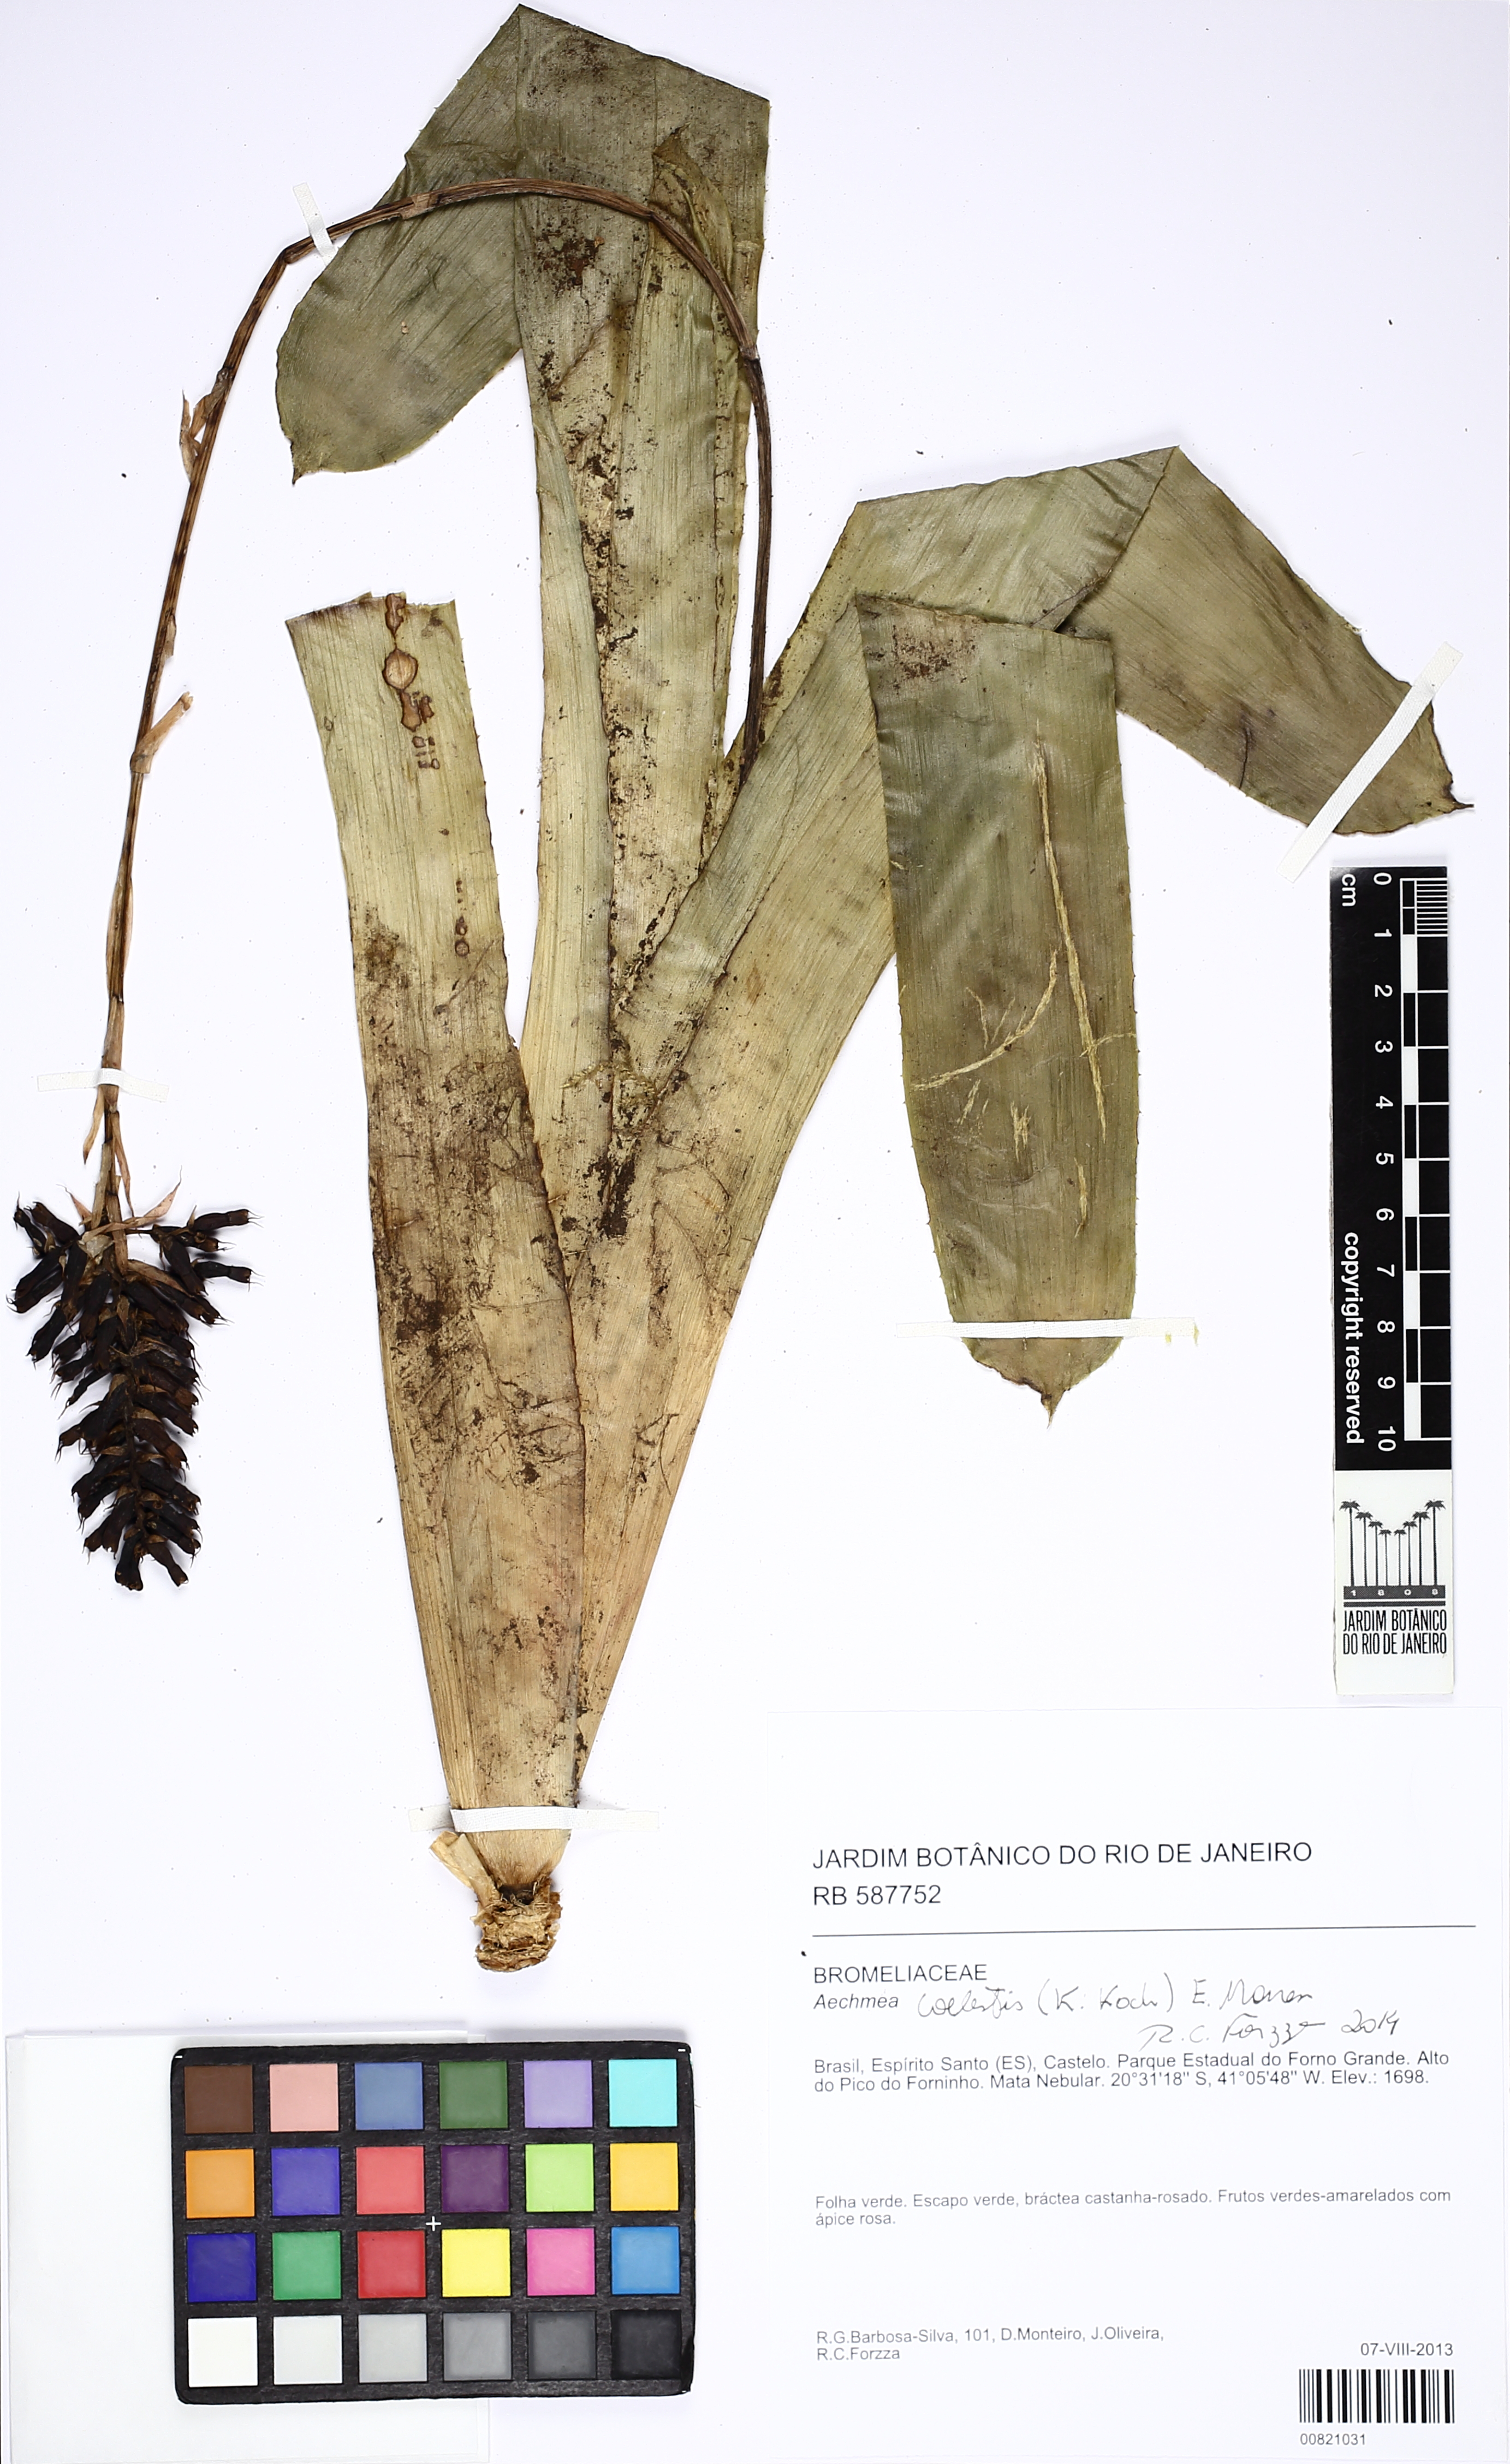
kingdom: Plantae
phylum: Tracheophyta
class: Liliopsida
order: Poales
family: Bromeliaceae
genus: Aechmea
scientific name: Aechmea coelestis
